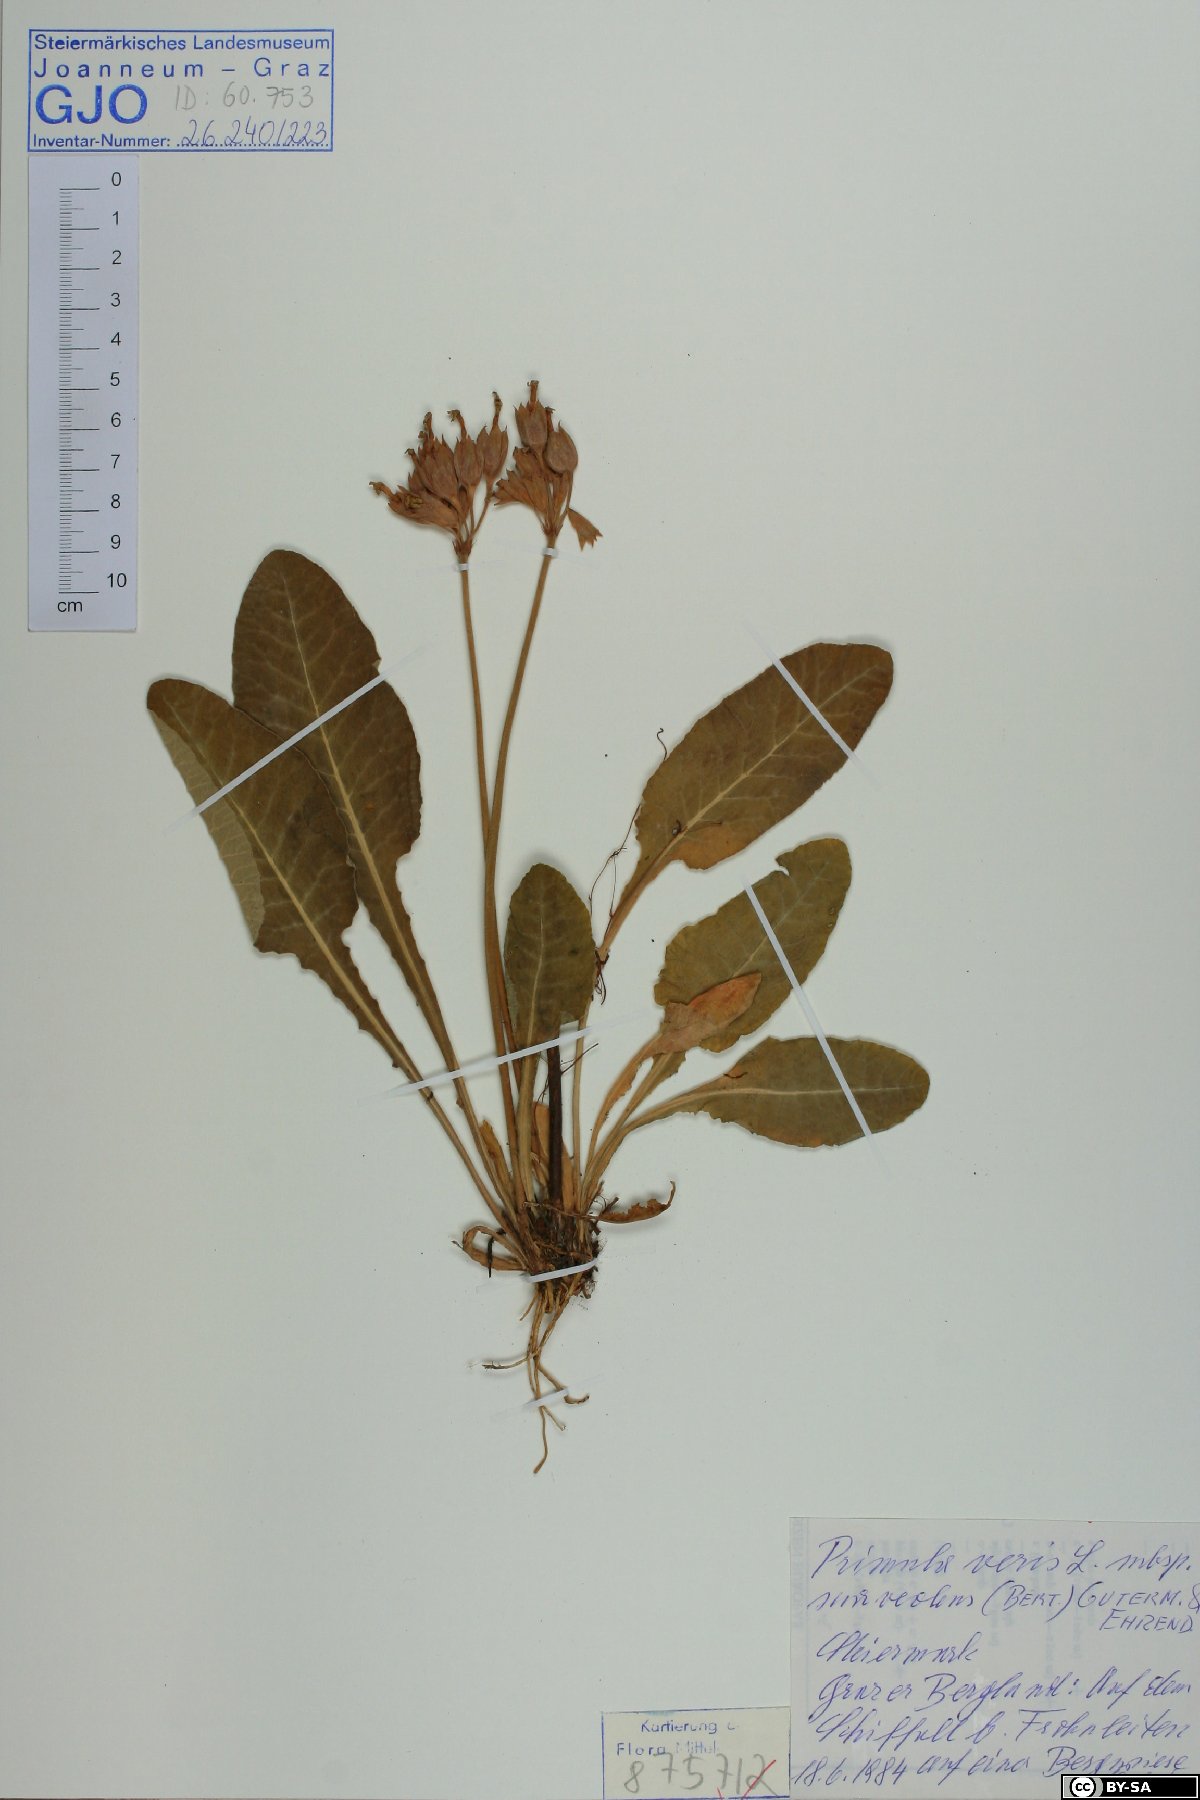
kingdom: Plantae
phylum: Tracheophyta
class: Magnoliopsida
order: Ericales
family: Primulaceae
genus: Primula
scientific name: Primula veris
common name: Cowslip
